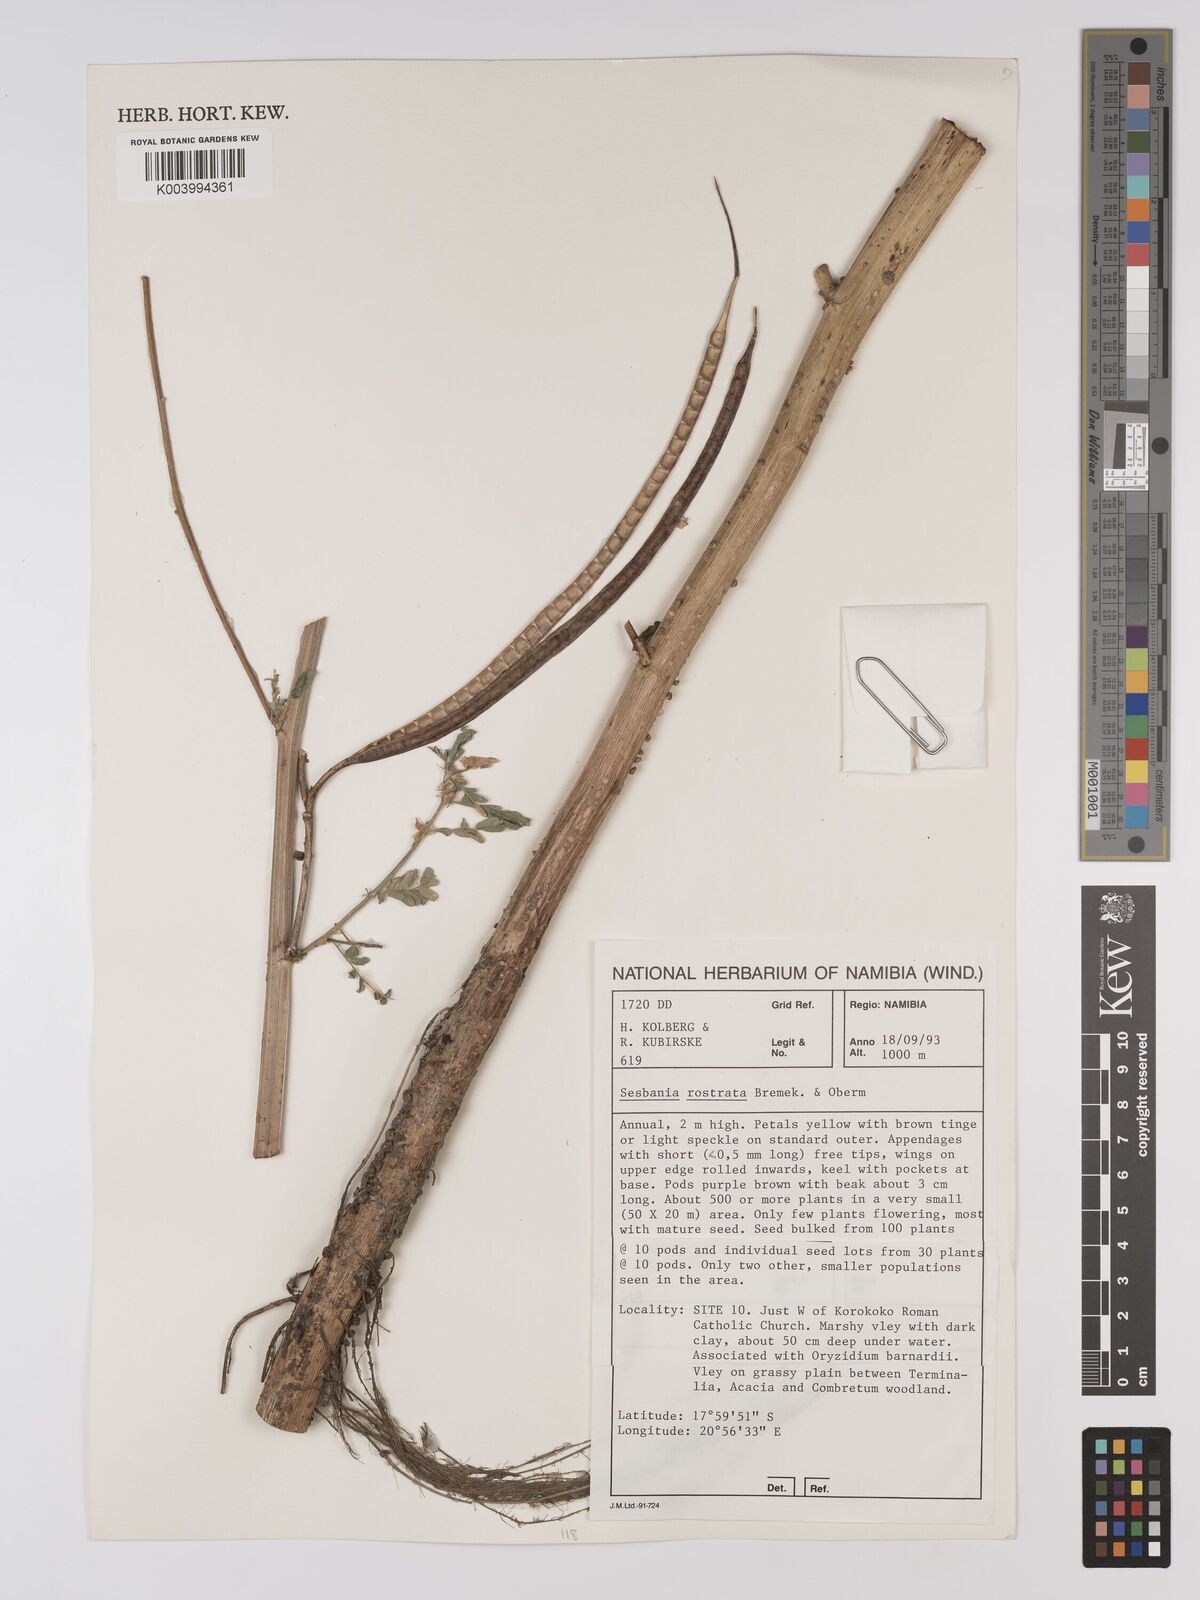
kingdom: Plantae
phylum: Tracheophyta
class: Magnoliopsida
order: Fabales
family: Fabaceae
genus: Sesbania
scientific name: Sesbania rostrata
